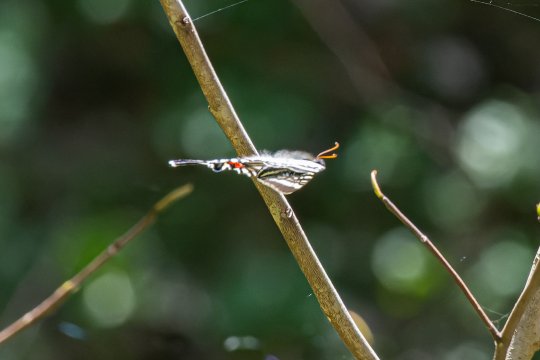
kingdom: Animalia
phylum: Arthropoda
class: Insecta
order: Lepidoptera
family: Papilionidae
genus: Protographium
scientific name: Protographium marcellus
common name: Zebra Swallowtail
